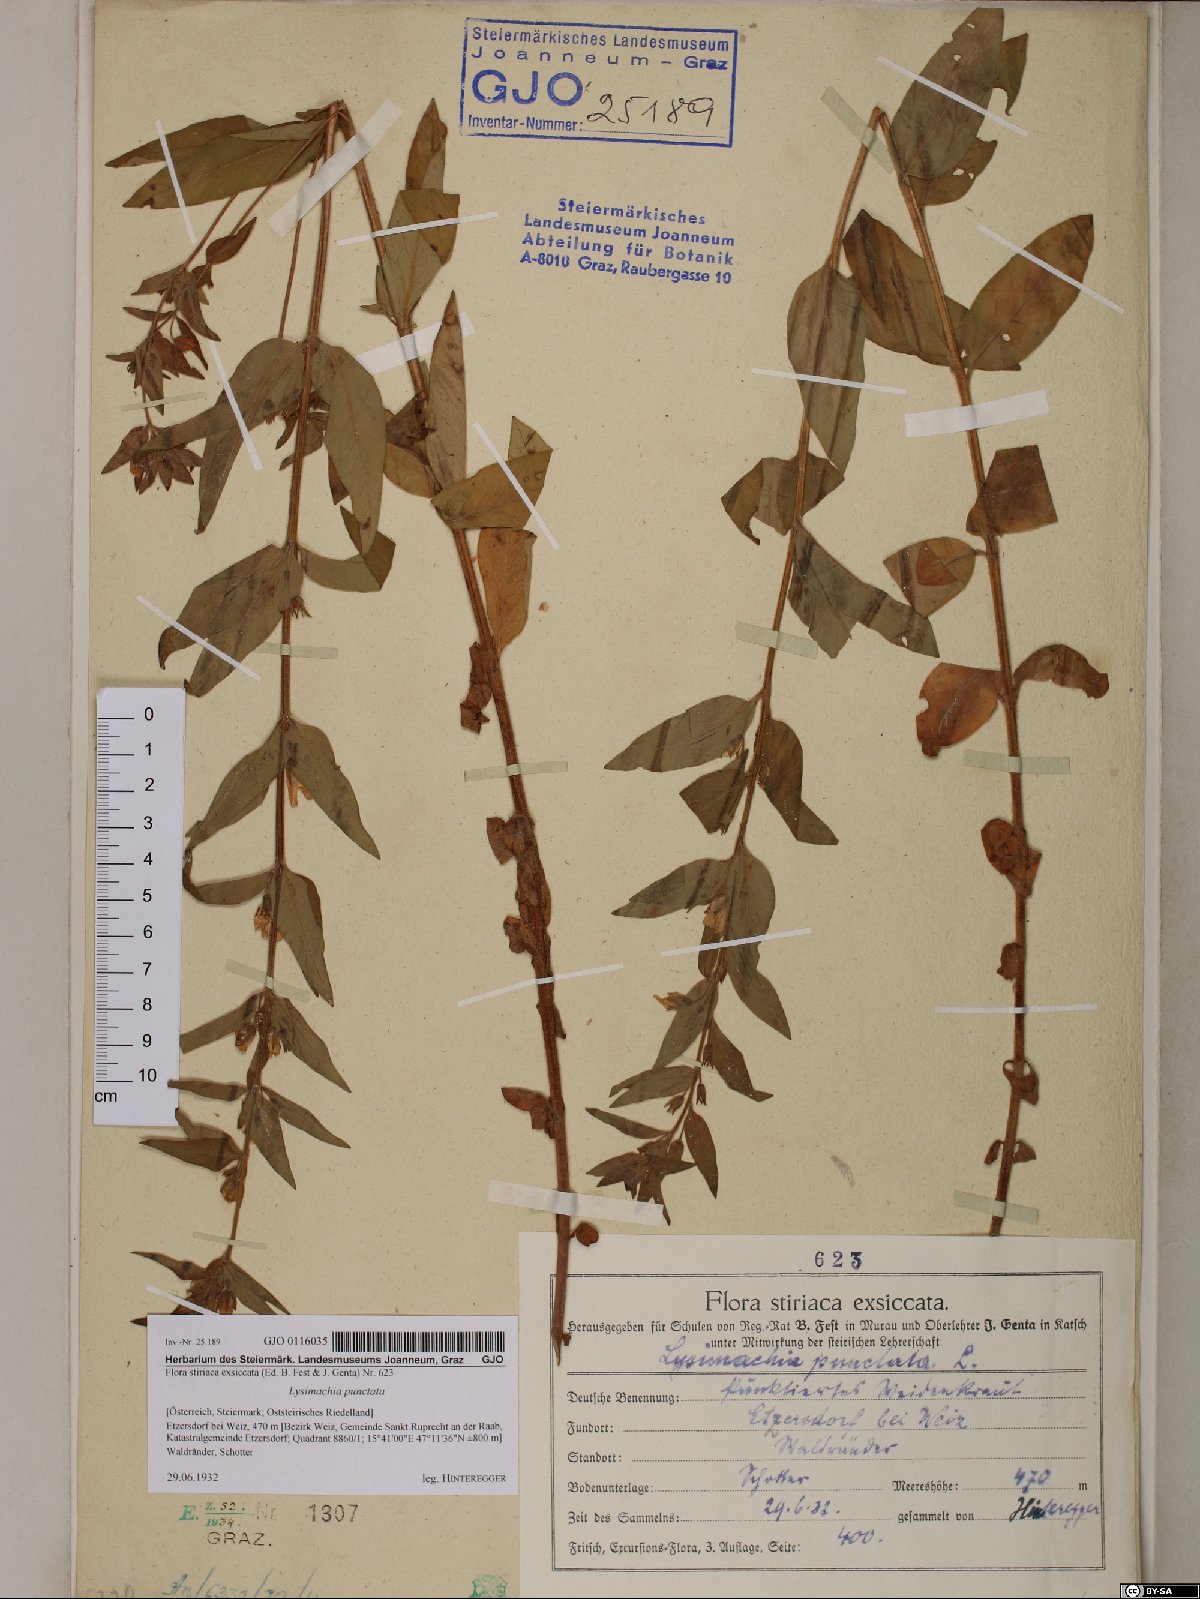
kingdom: Plantae
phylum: Tracheophyta
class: Magnoliopsida
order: Ericales
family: Primulaceae
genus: Lysimachia
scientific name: Lysimachia punctata
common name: Dotted loosestrife
